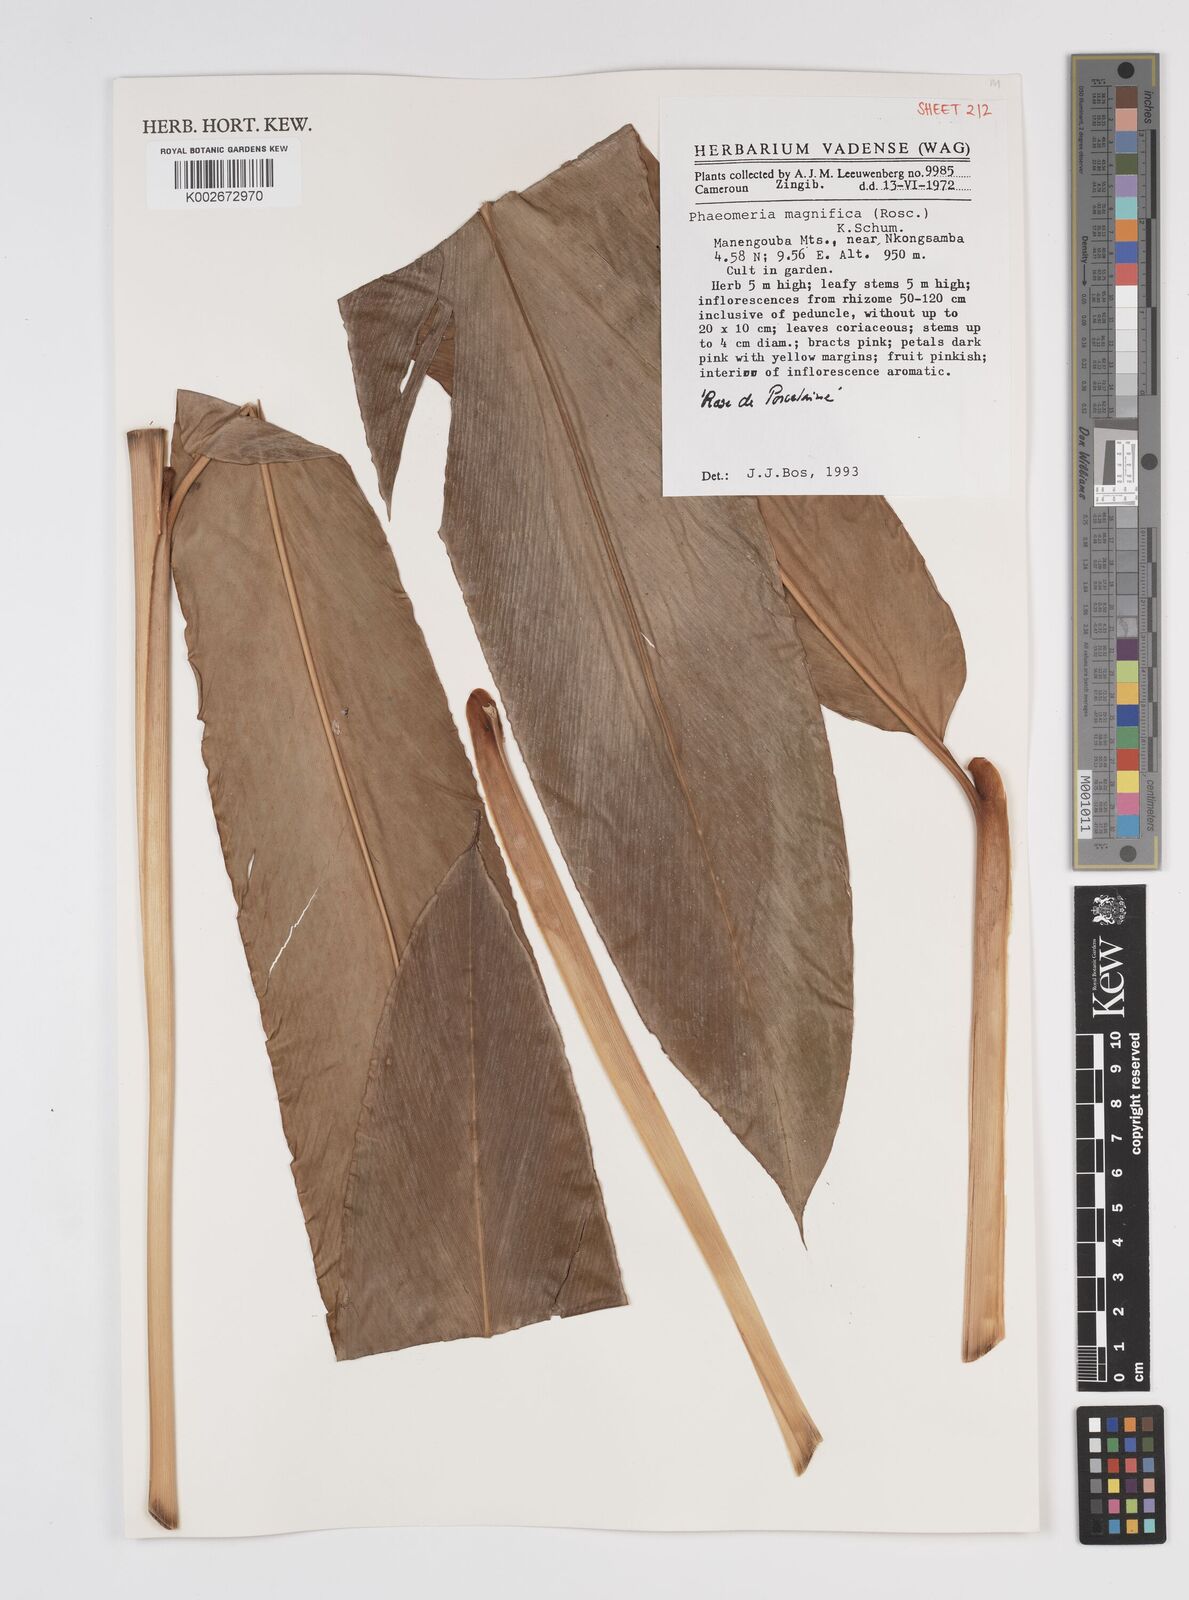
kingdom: Plantae
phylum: Tracheophyta
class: Liliopsida
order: Zingiberales
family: Zingiberaceae
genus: Etlingera
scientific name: Etlingera elatior
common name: Philippine waxflower
